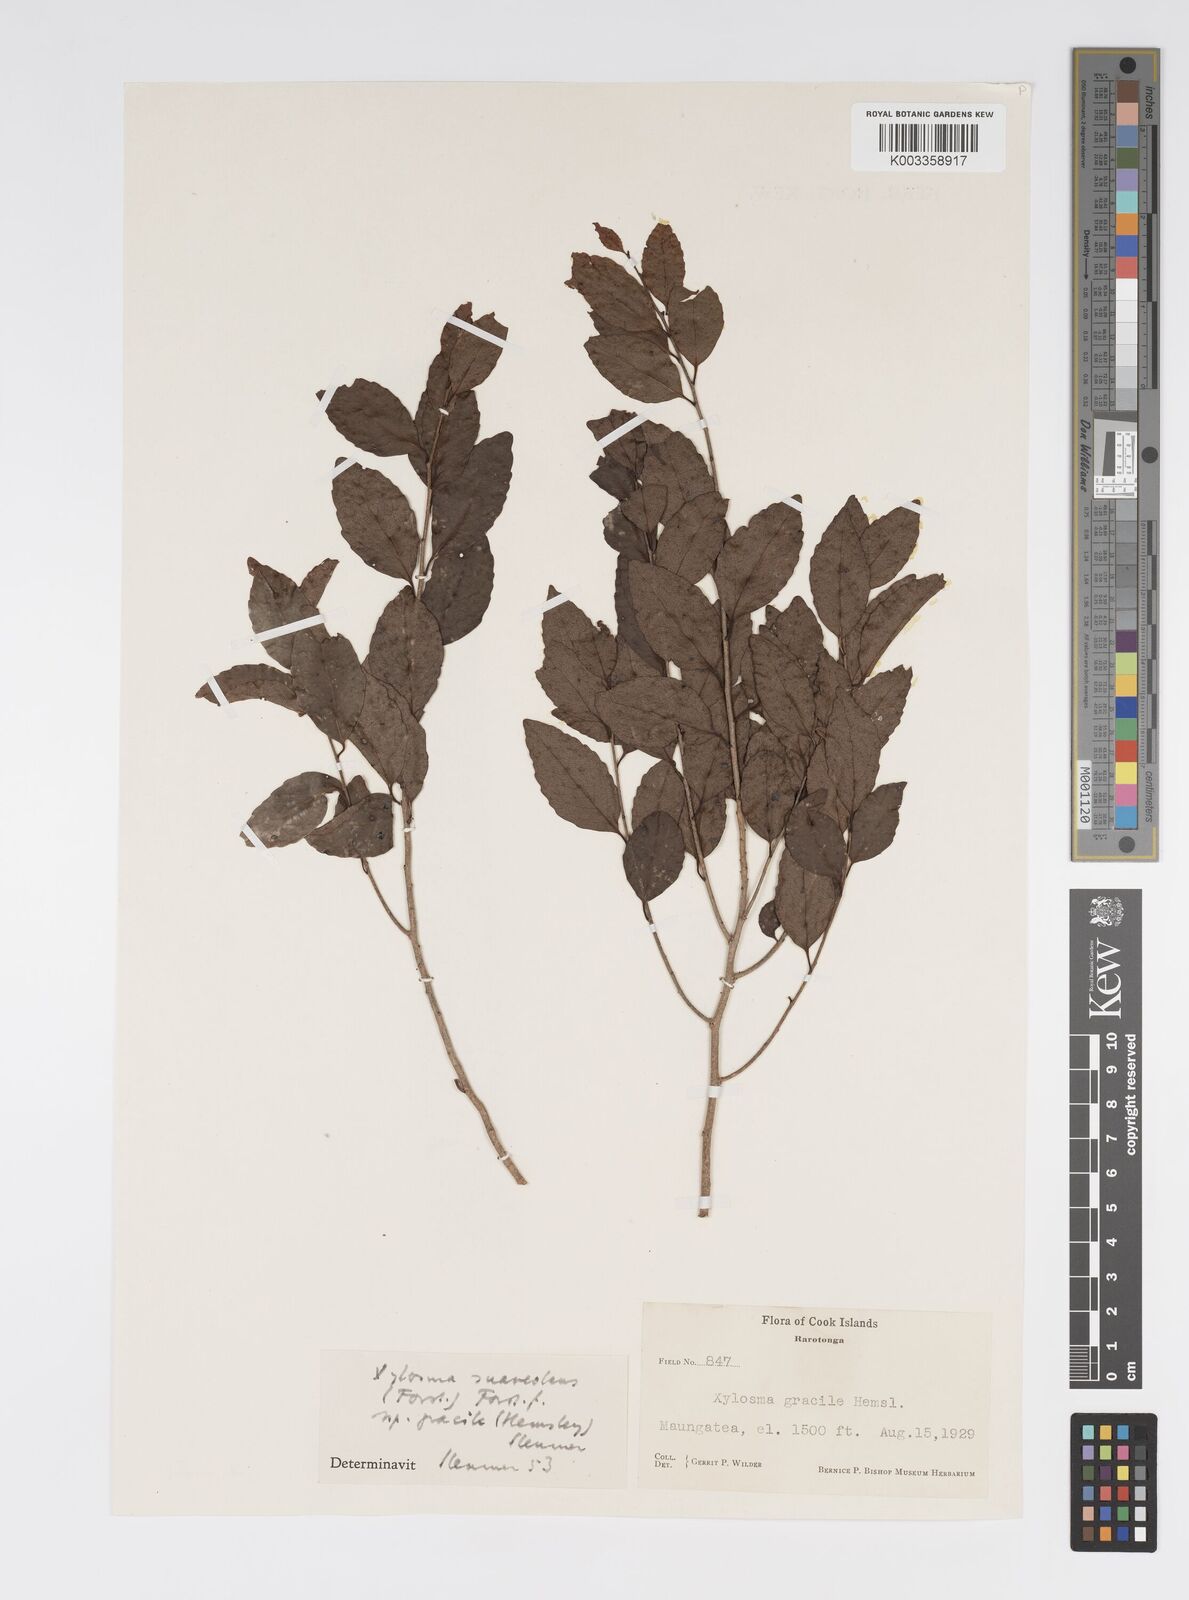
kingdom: Plantae
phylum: Tracheophyta
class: Magnoliopsida
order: Malpighiales
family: Salicaceae
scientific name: Salicaceae
